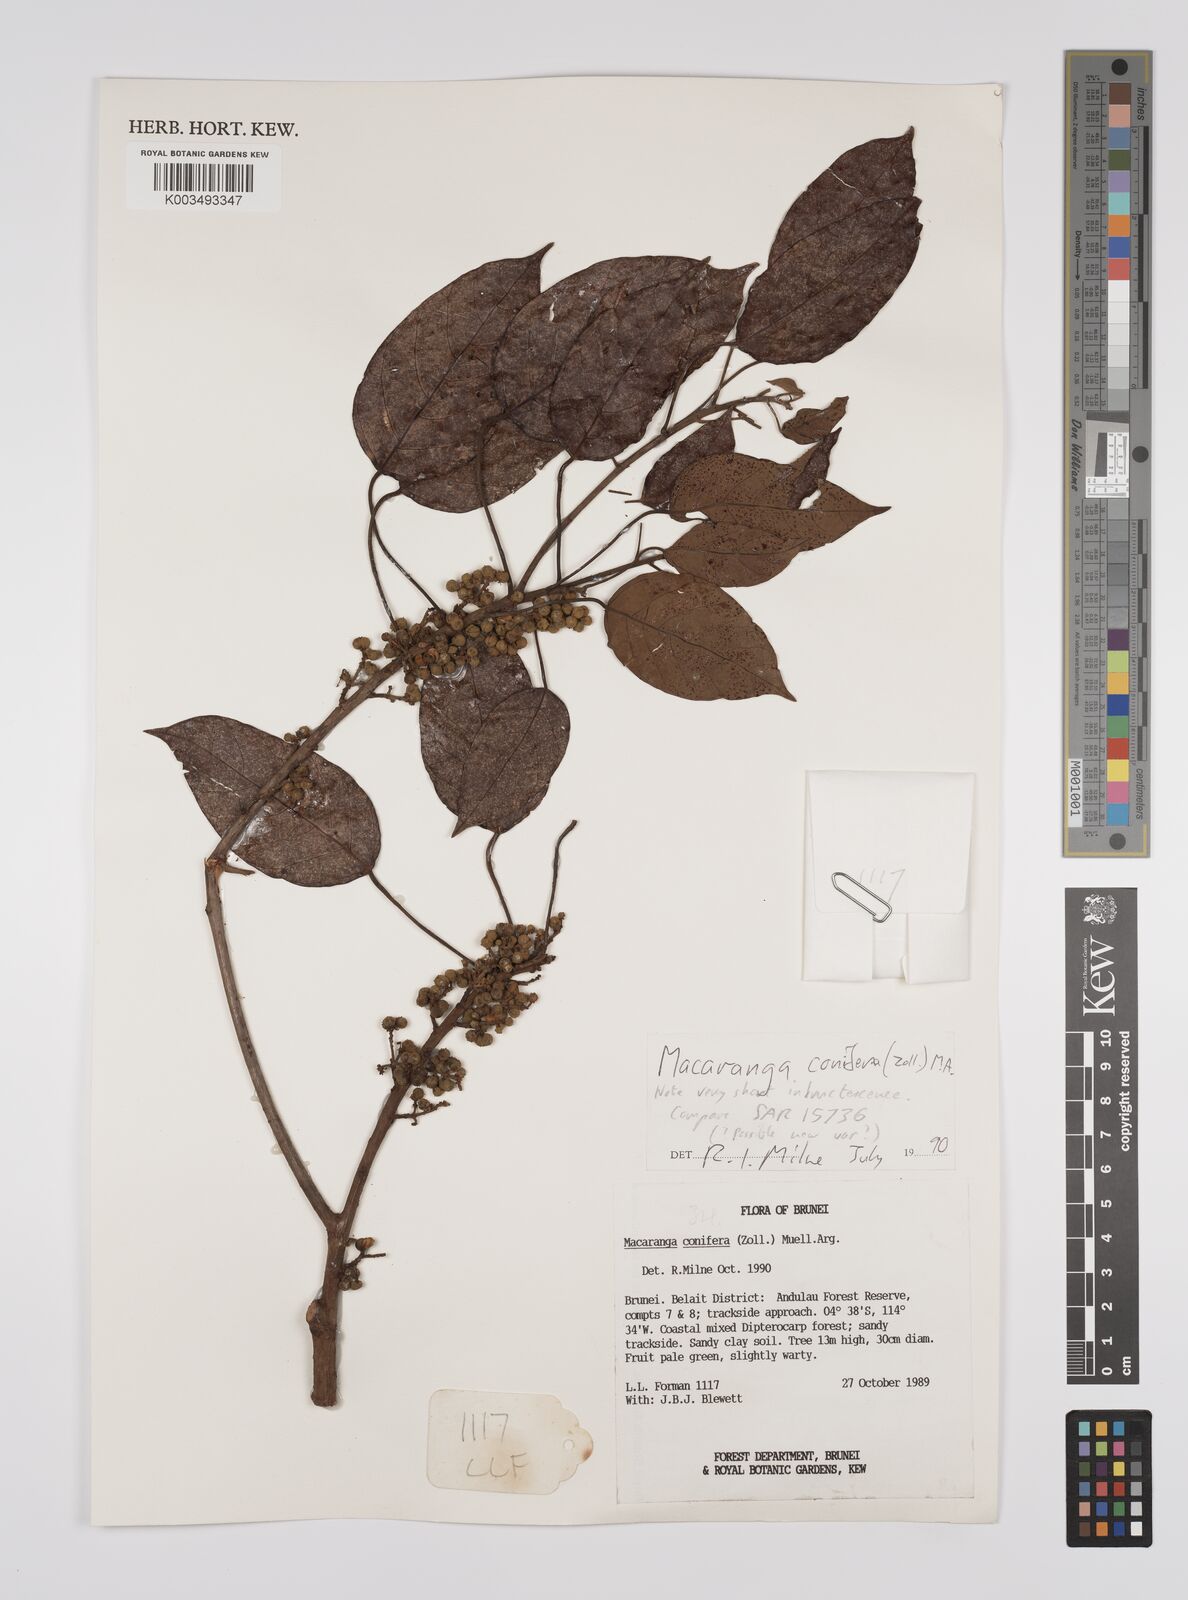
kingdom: Plantae
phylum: Tracheophyta
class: Magnoliopsida
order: Malpighiales
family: Euphorbiaceae
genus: Macaranga
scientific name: Macaranga conifera
